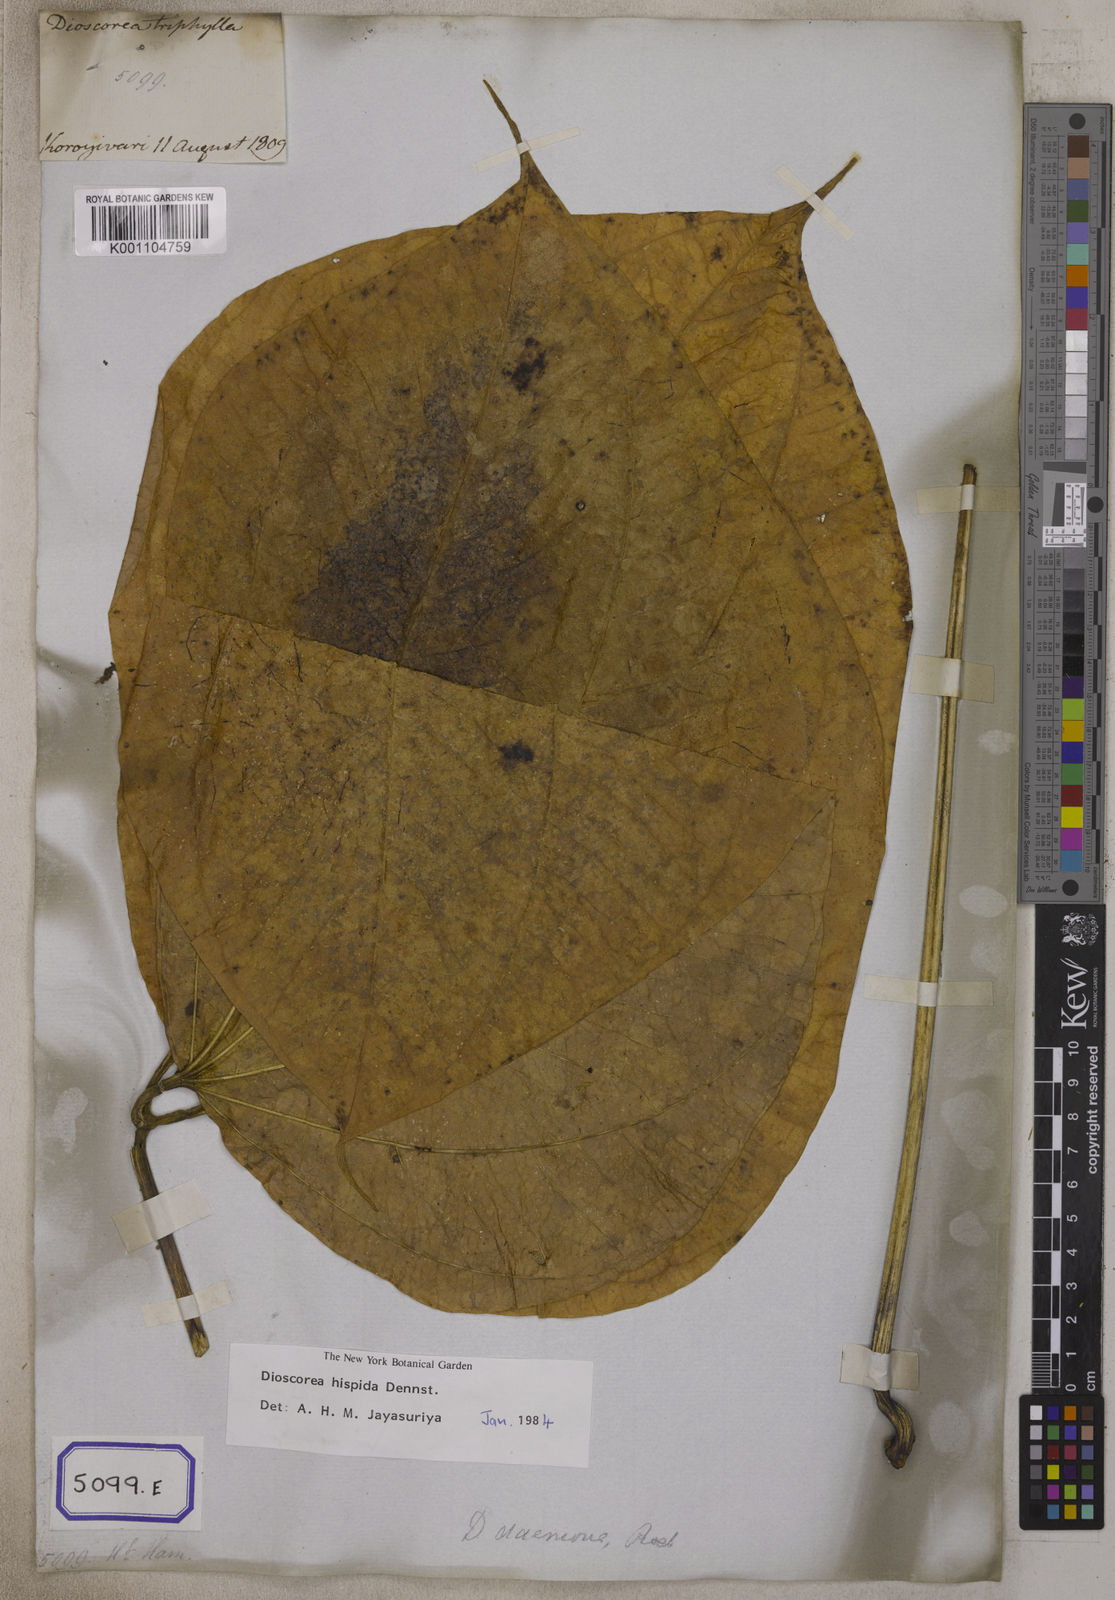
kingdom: Plantae
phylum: Tracheophyta
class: Liliopsida
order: Dioscoreales
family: Dioscoreaceae
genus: Dioscorea
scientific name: Dioscorea
